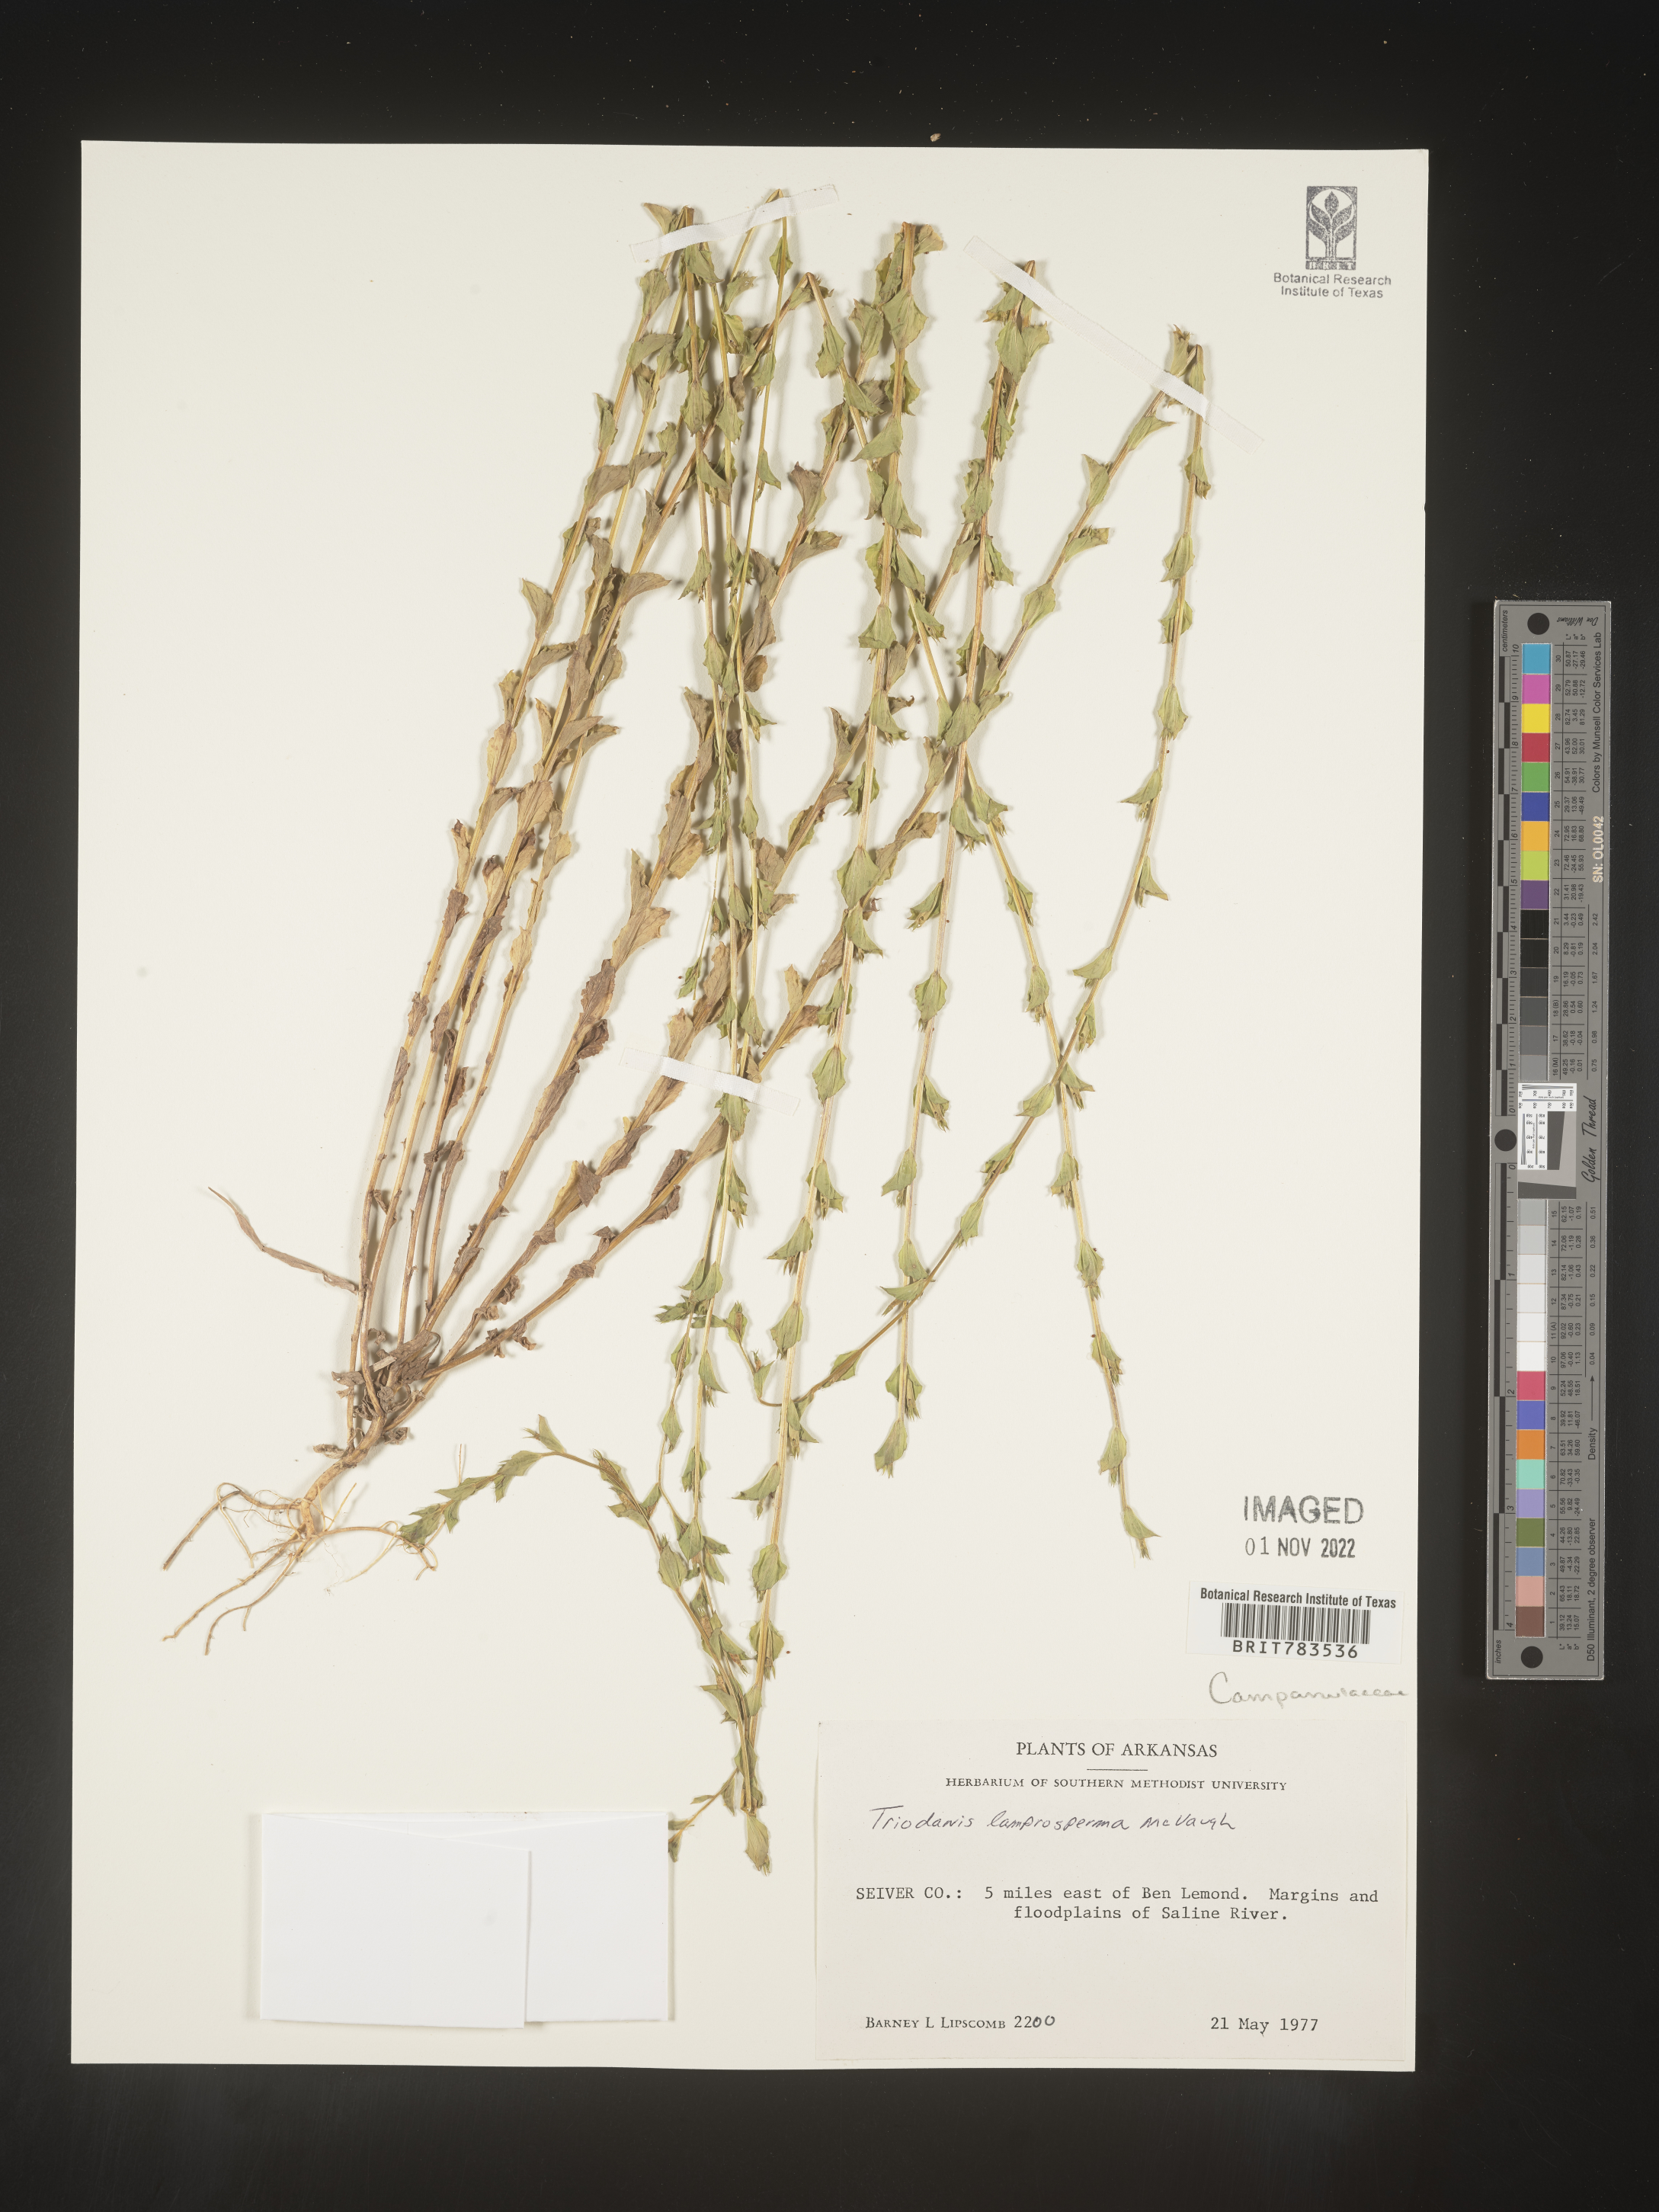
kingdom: Plantae
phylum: Tracheophyta
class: Magnoliopsida
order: Asterales
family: Campanulaceae
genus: Triodanis
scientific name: Triodanis lamprosperma
